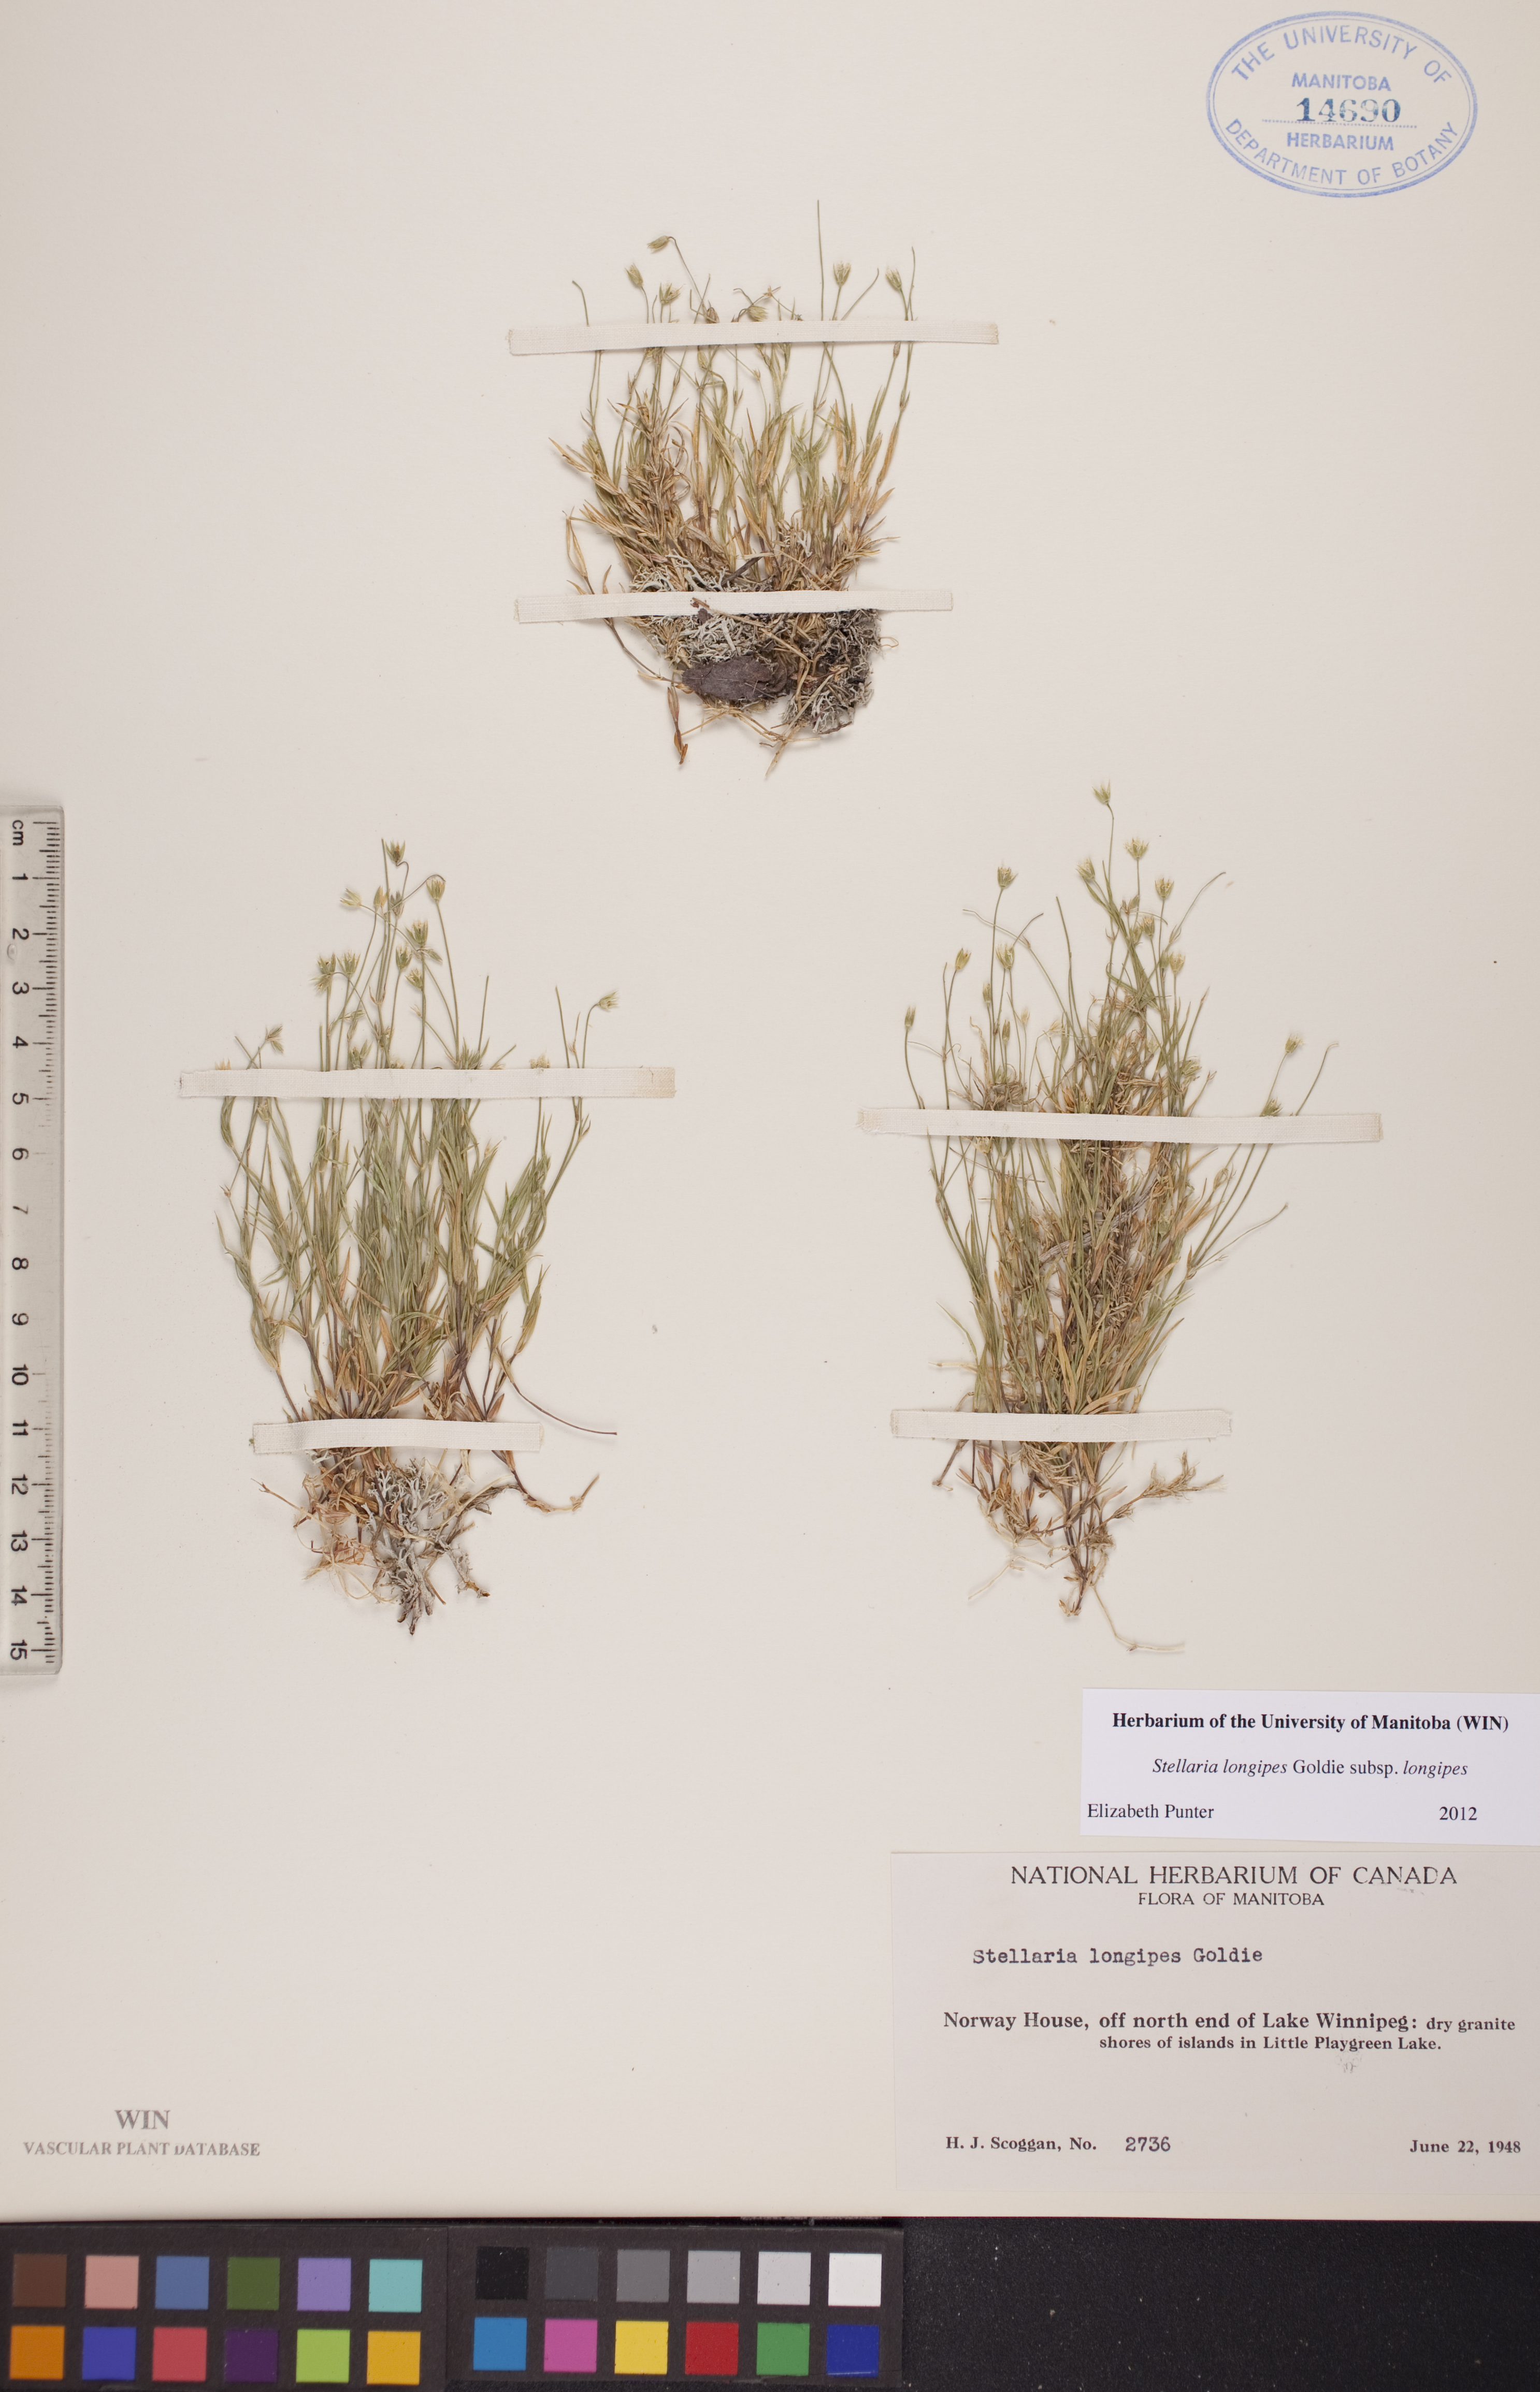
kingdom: Plantae
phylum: Tracheophyta
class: Magnoliopsida
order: Caryophyllales
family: Caryophyllaceae
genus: Stellaria
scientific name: Stellaria longipes
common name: Goldie's starwort
